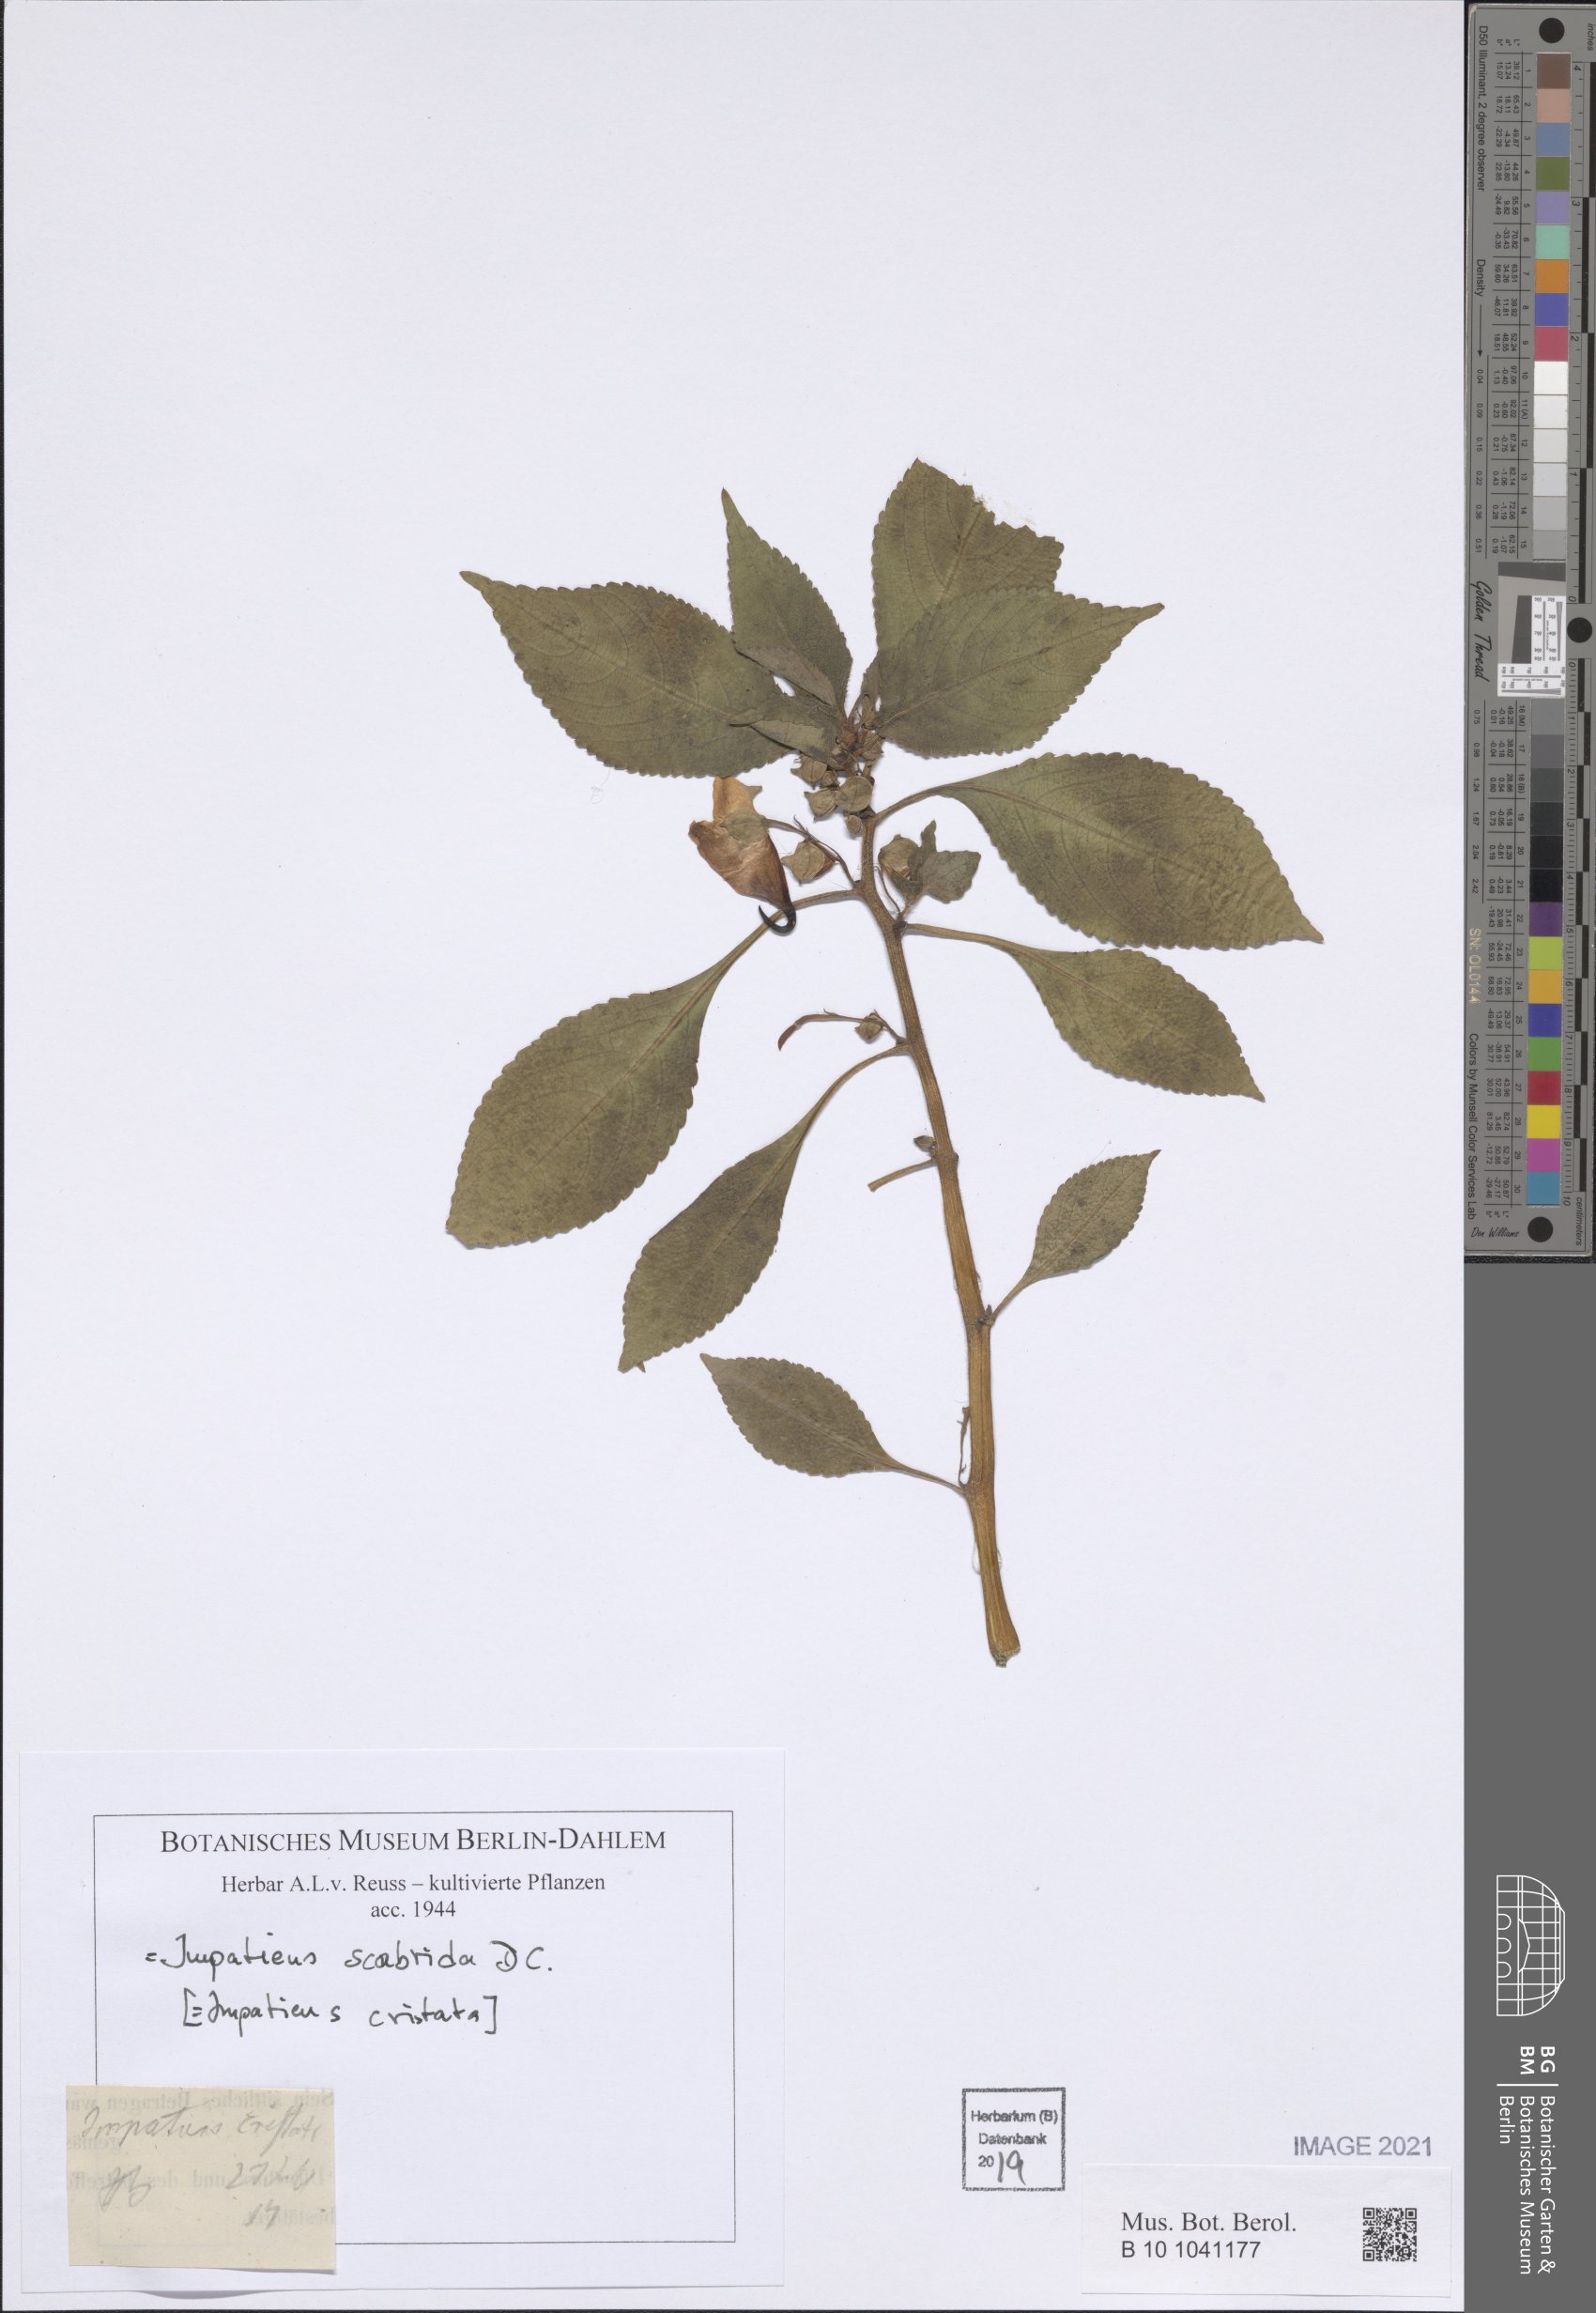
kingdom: Plantae
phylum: Tracheophyta
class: Magnoliopsida
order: Ericales
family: Balsaminaceae
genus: Impatiens
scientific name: Impatiens scabrida
